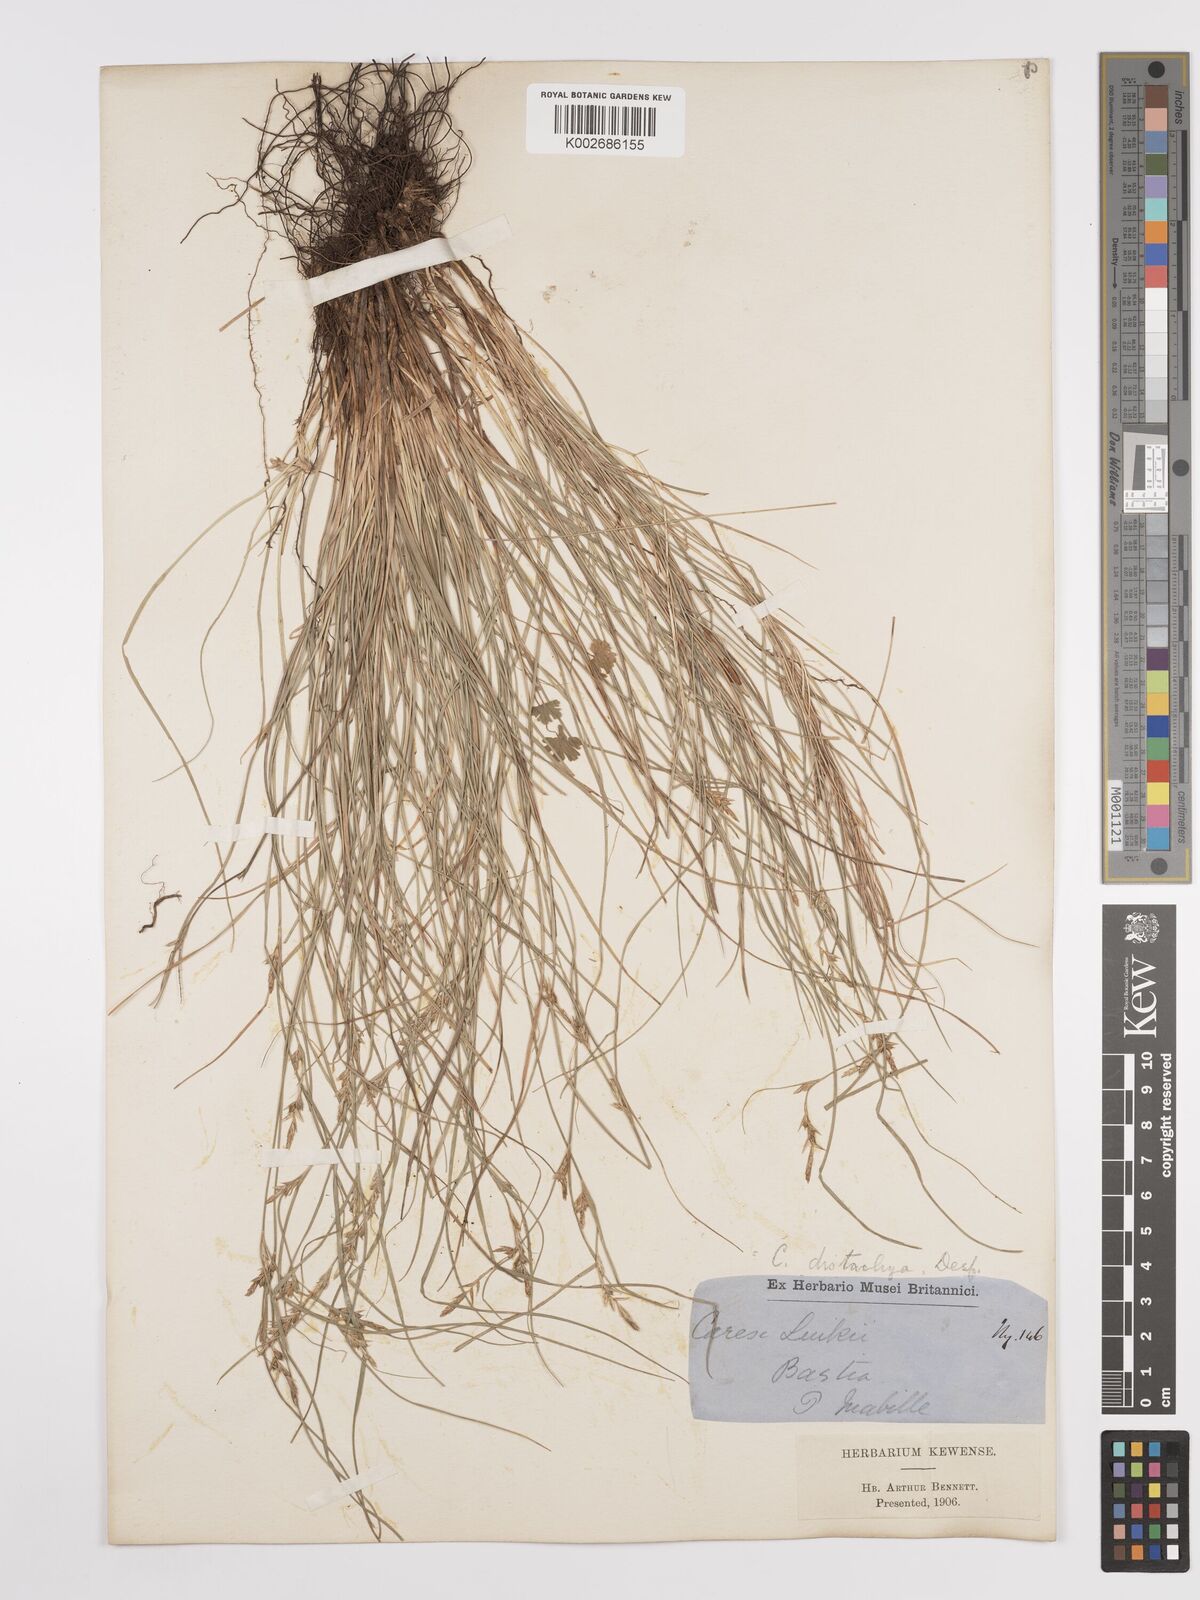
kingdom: Plantae
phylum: Tracheophyta
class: Liliopsida
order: Poales
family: Cyperaceae
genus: Carex
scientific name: Carex distachya
